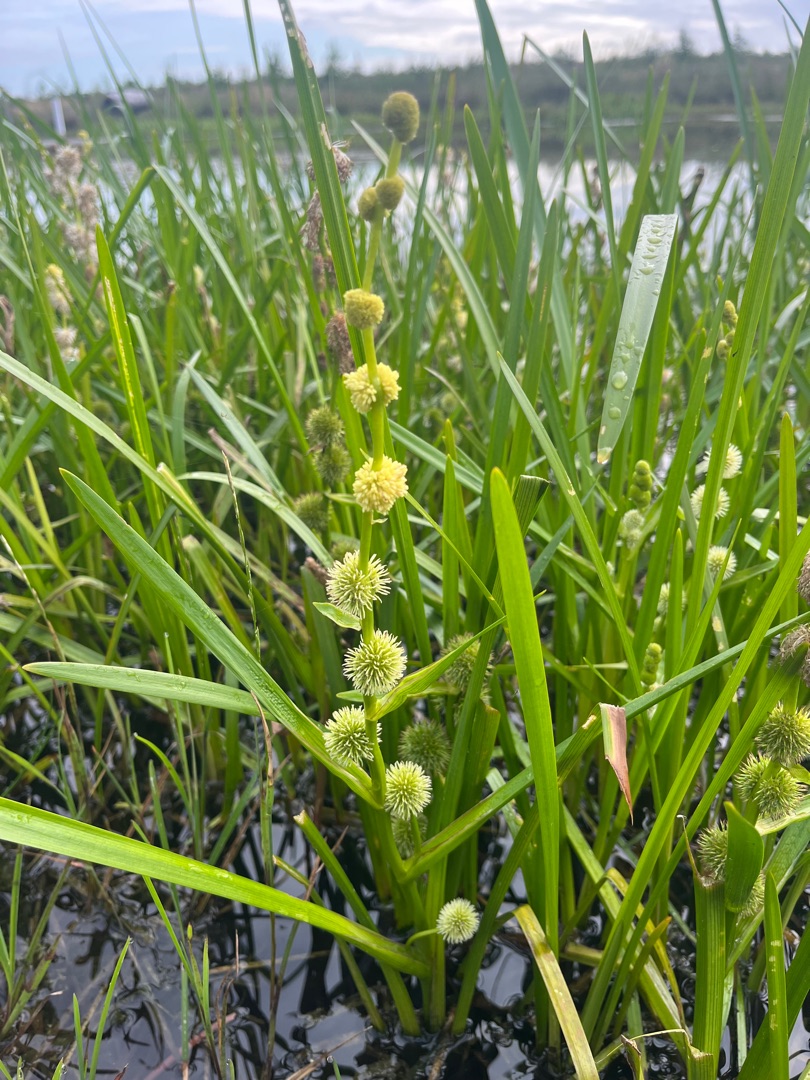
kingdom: Plantae
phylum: Tracheophyta
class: Liliopsida
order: Poales
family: Typhaceae
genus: Sparganium
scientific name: Sparganium emersum
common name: Enkelt pindsvineknop
